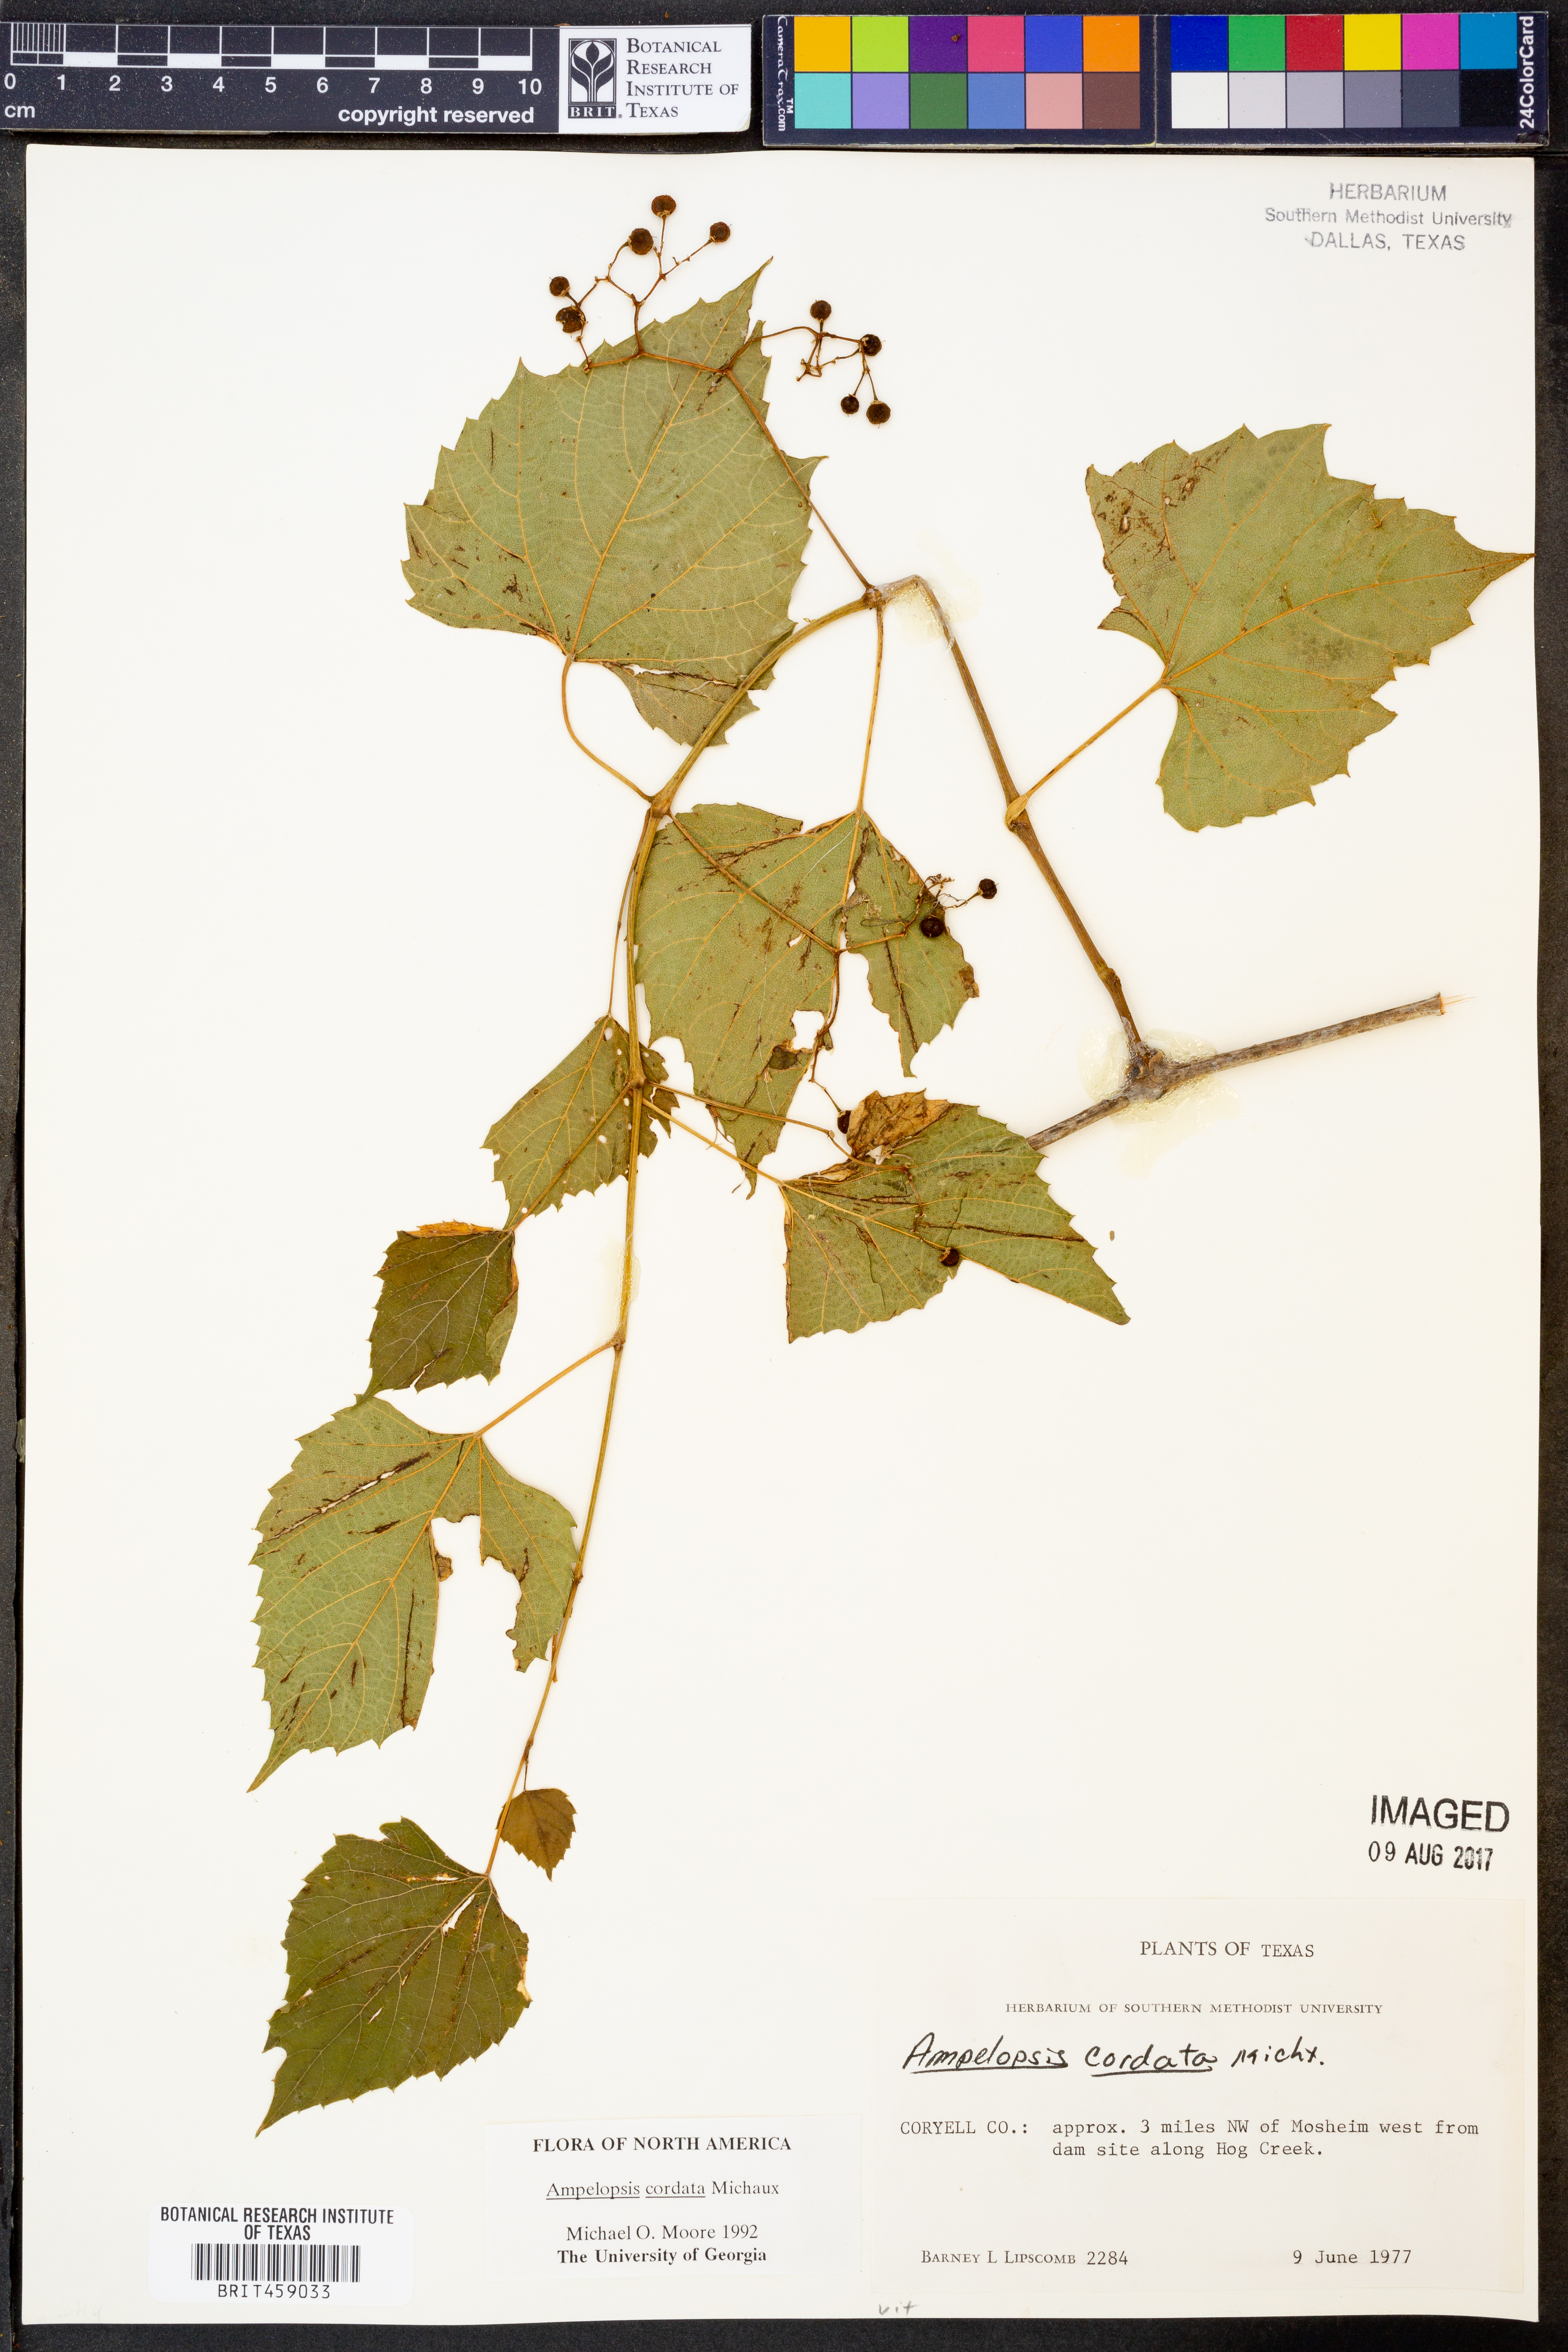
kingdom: Plantae
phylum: Tracheophyta
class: Magnoliopsida
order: Vitales
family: Vitaceae
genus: Ampelopsis
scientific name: Ampelopsis cordata
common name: Heart-leaf ampelopsis
